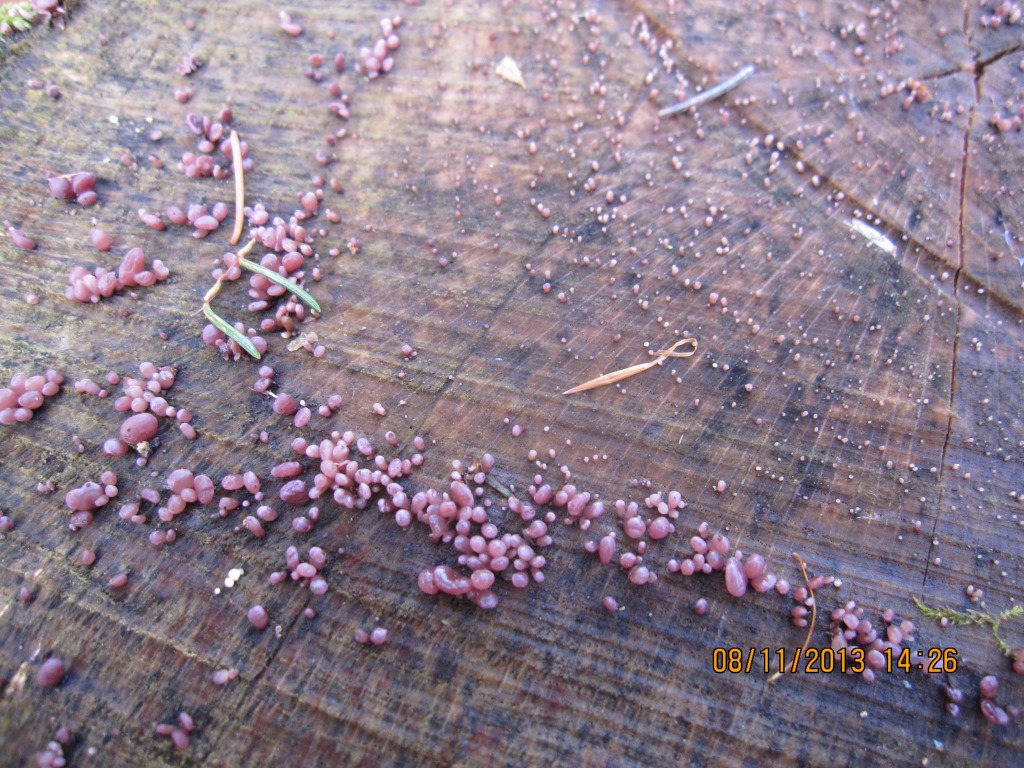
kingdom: Fungi
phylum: Ascomycota
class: Leotiomycetes
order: Helotiales
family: Gelatinodiscaceae
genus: Ascocoryne
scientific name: Ascocoryne sarcoides
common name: rødlilla sejskive
